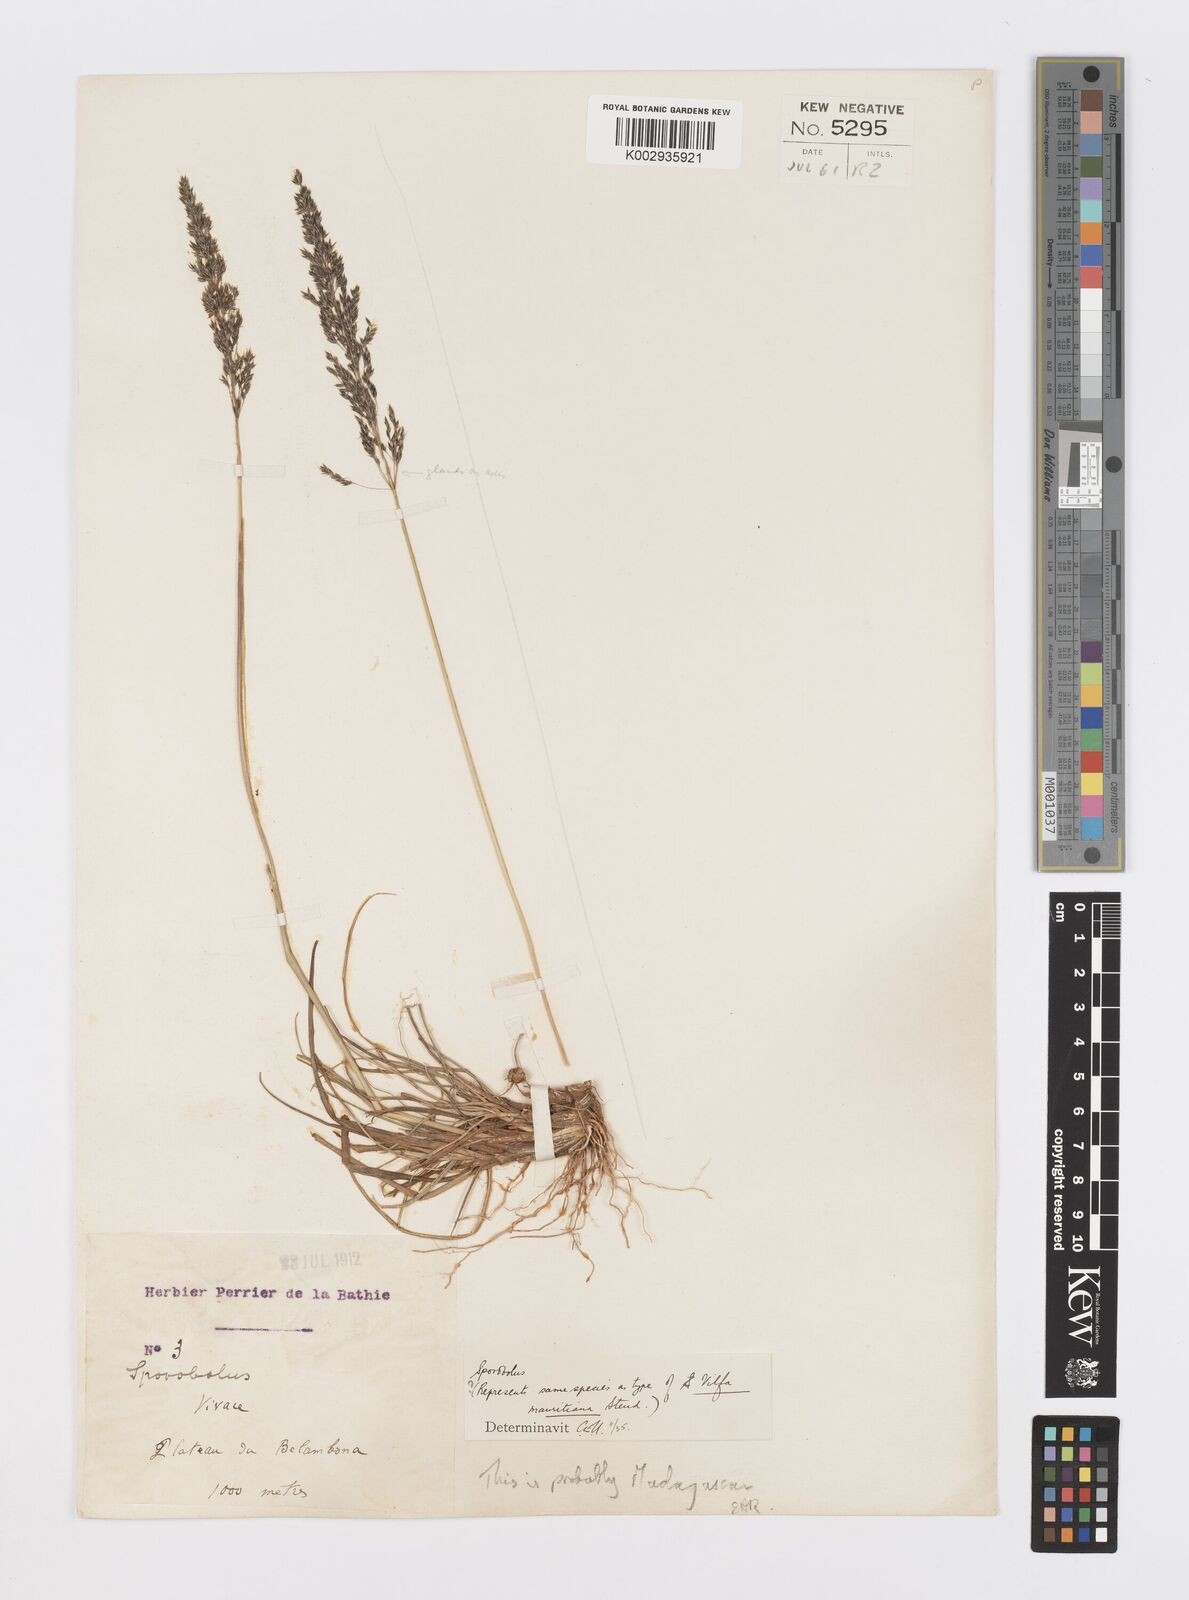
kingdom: Plantae
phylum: Tracheophyta
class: Liliopsida
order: Poales
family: Poaceae
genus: Sporobolus
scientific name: Sporobolus subulatus
